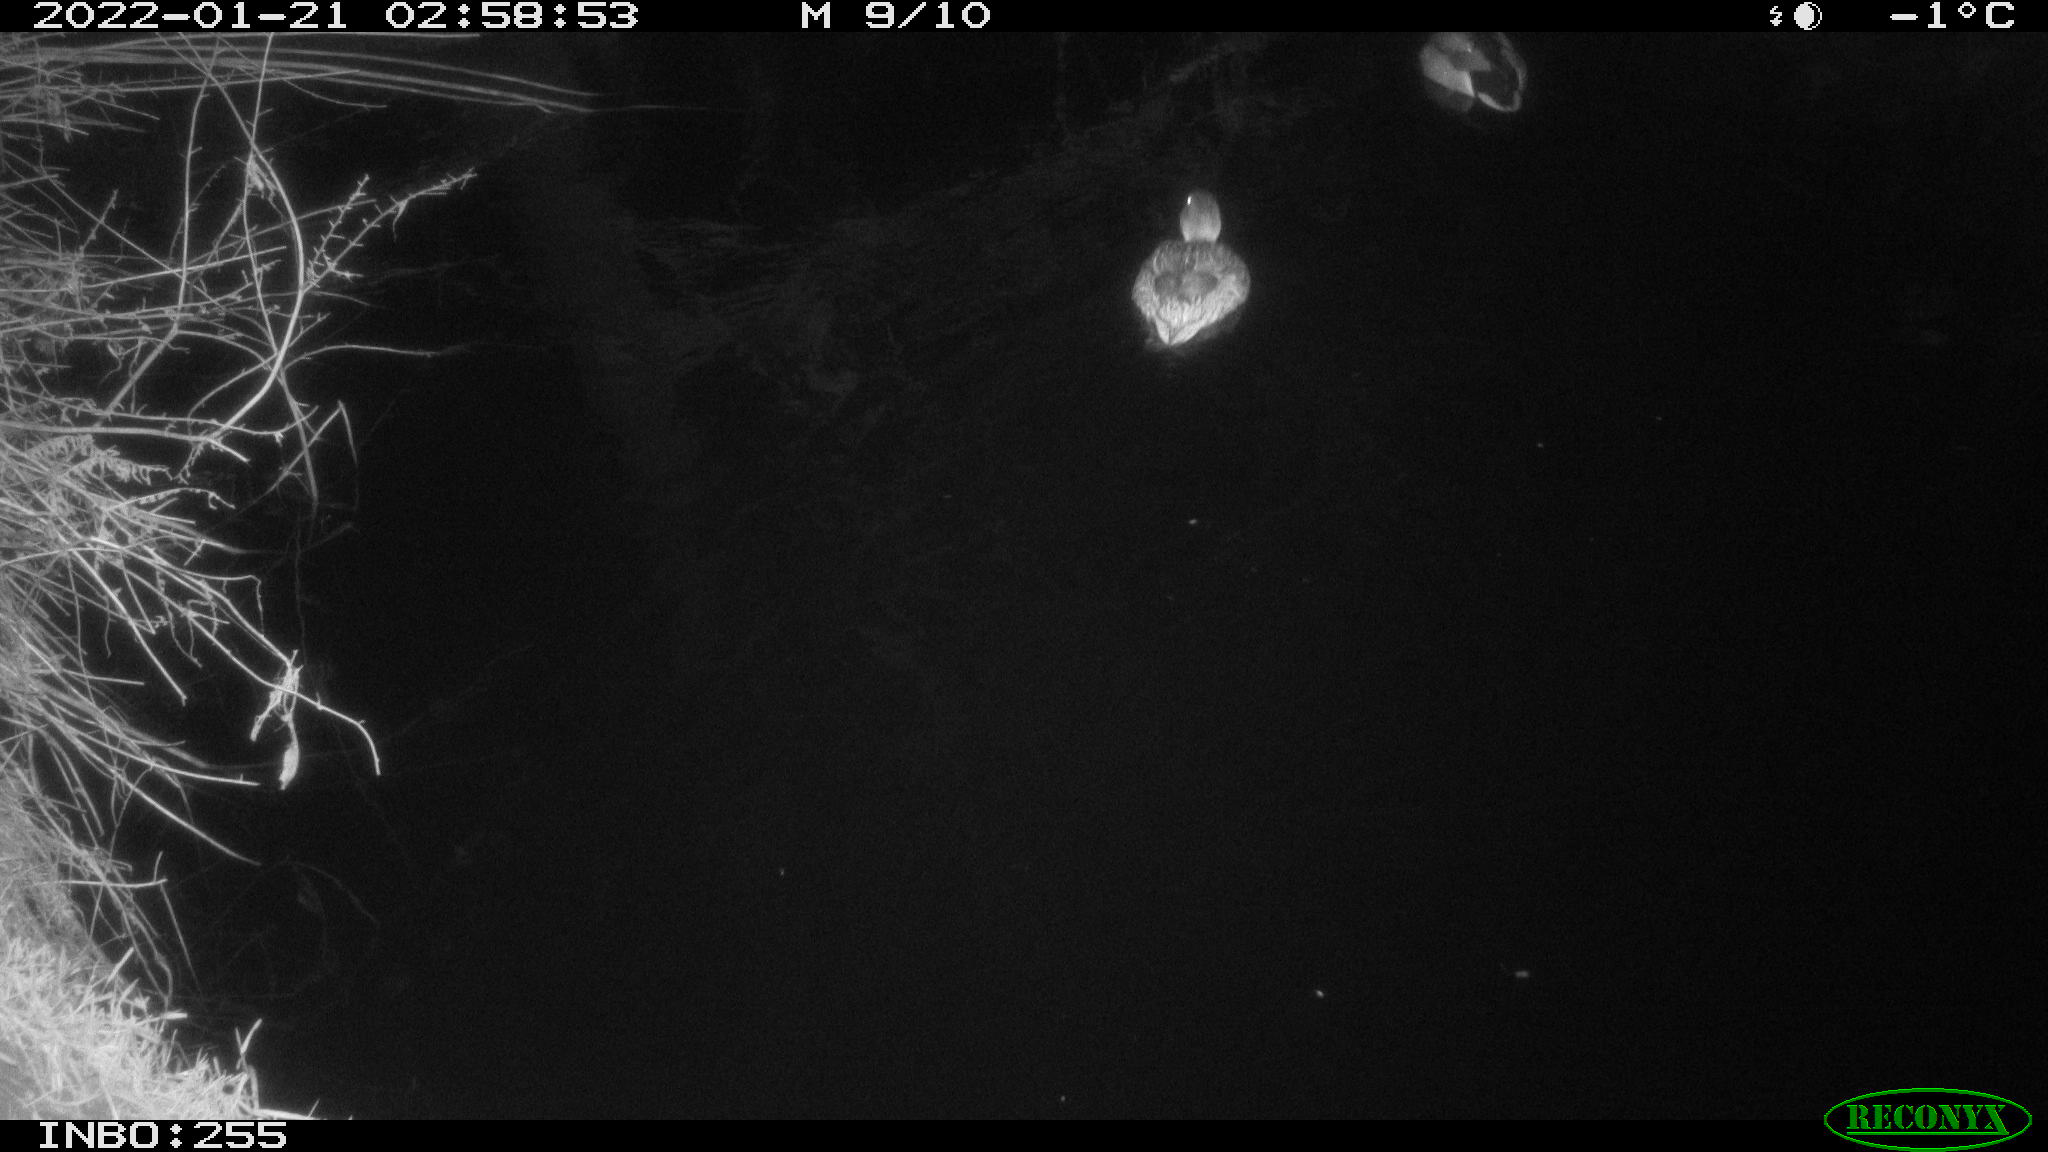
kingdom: Animalia
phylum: Chordata
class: Aves
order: Anseriformes
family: Anatidae
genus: Anas
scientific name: Anas
